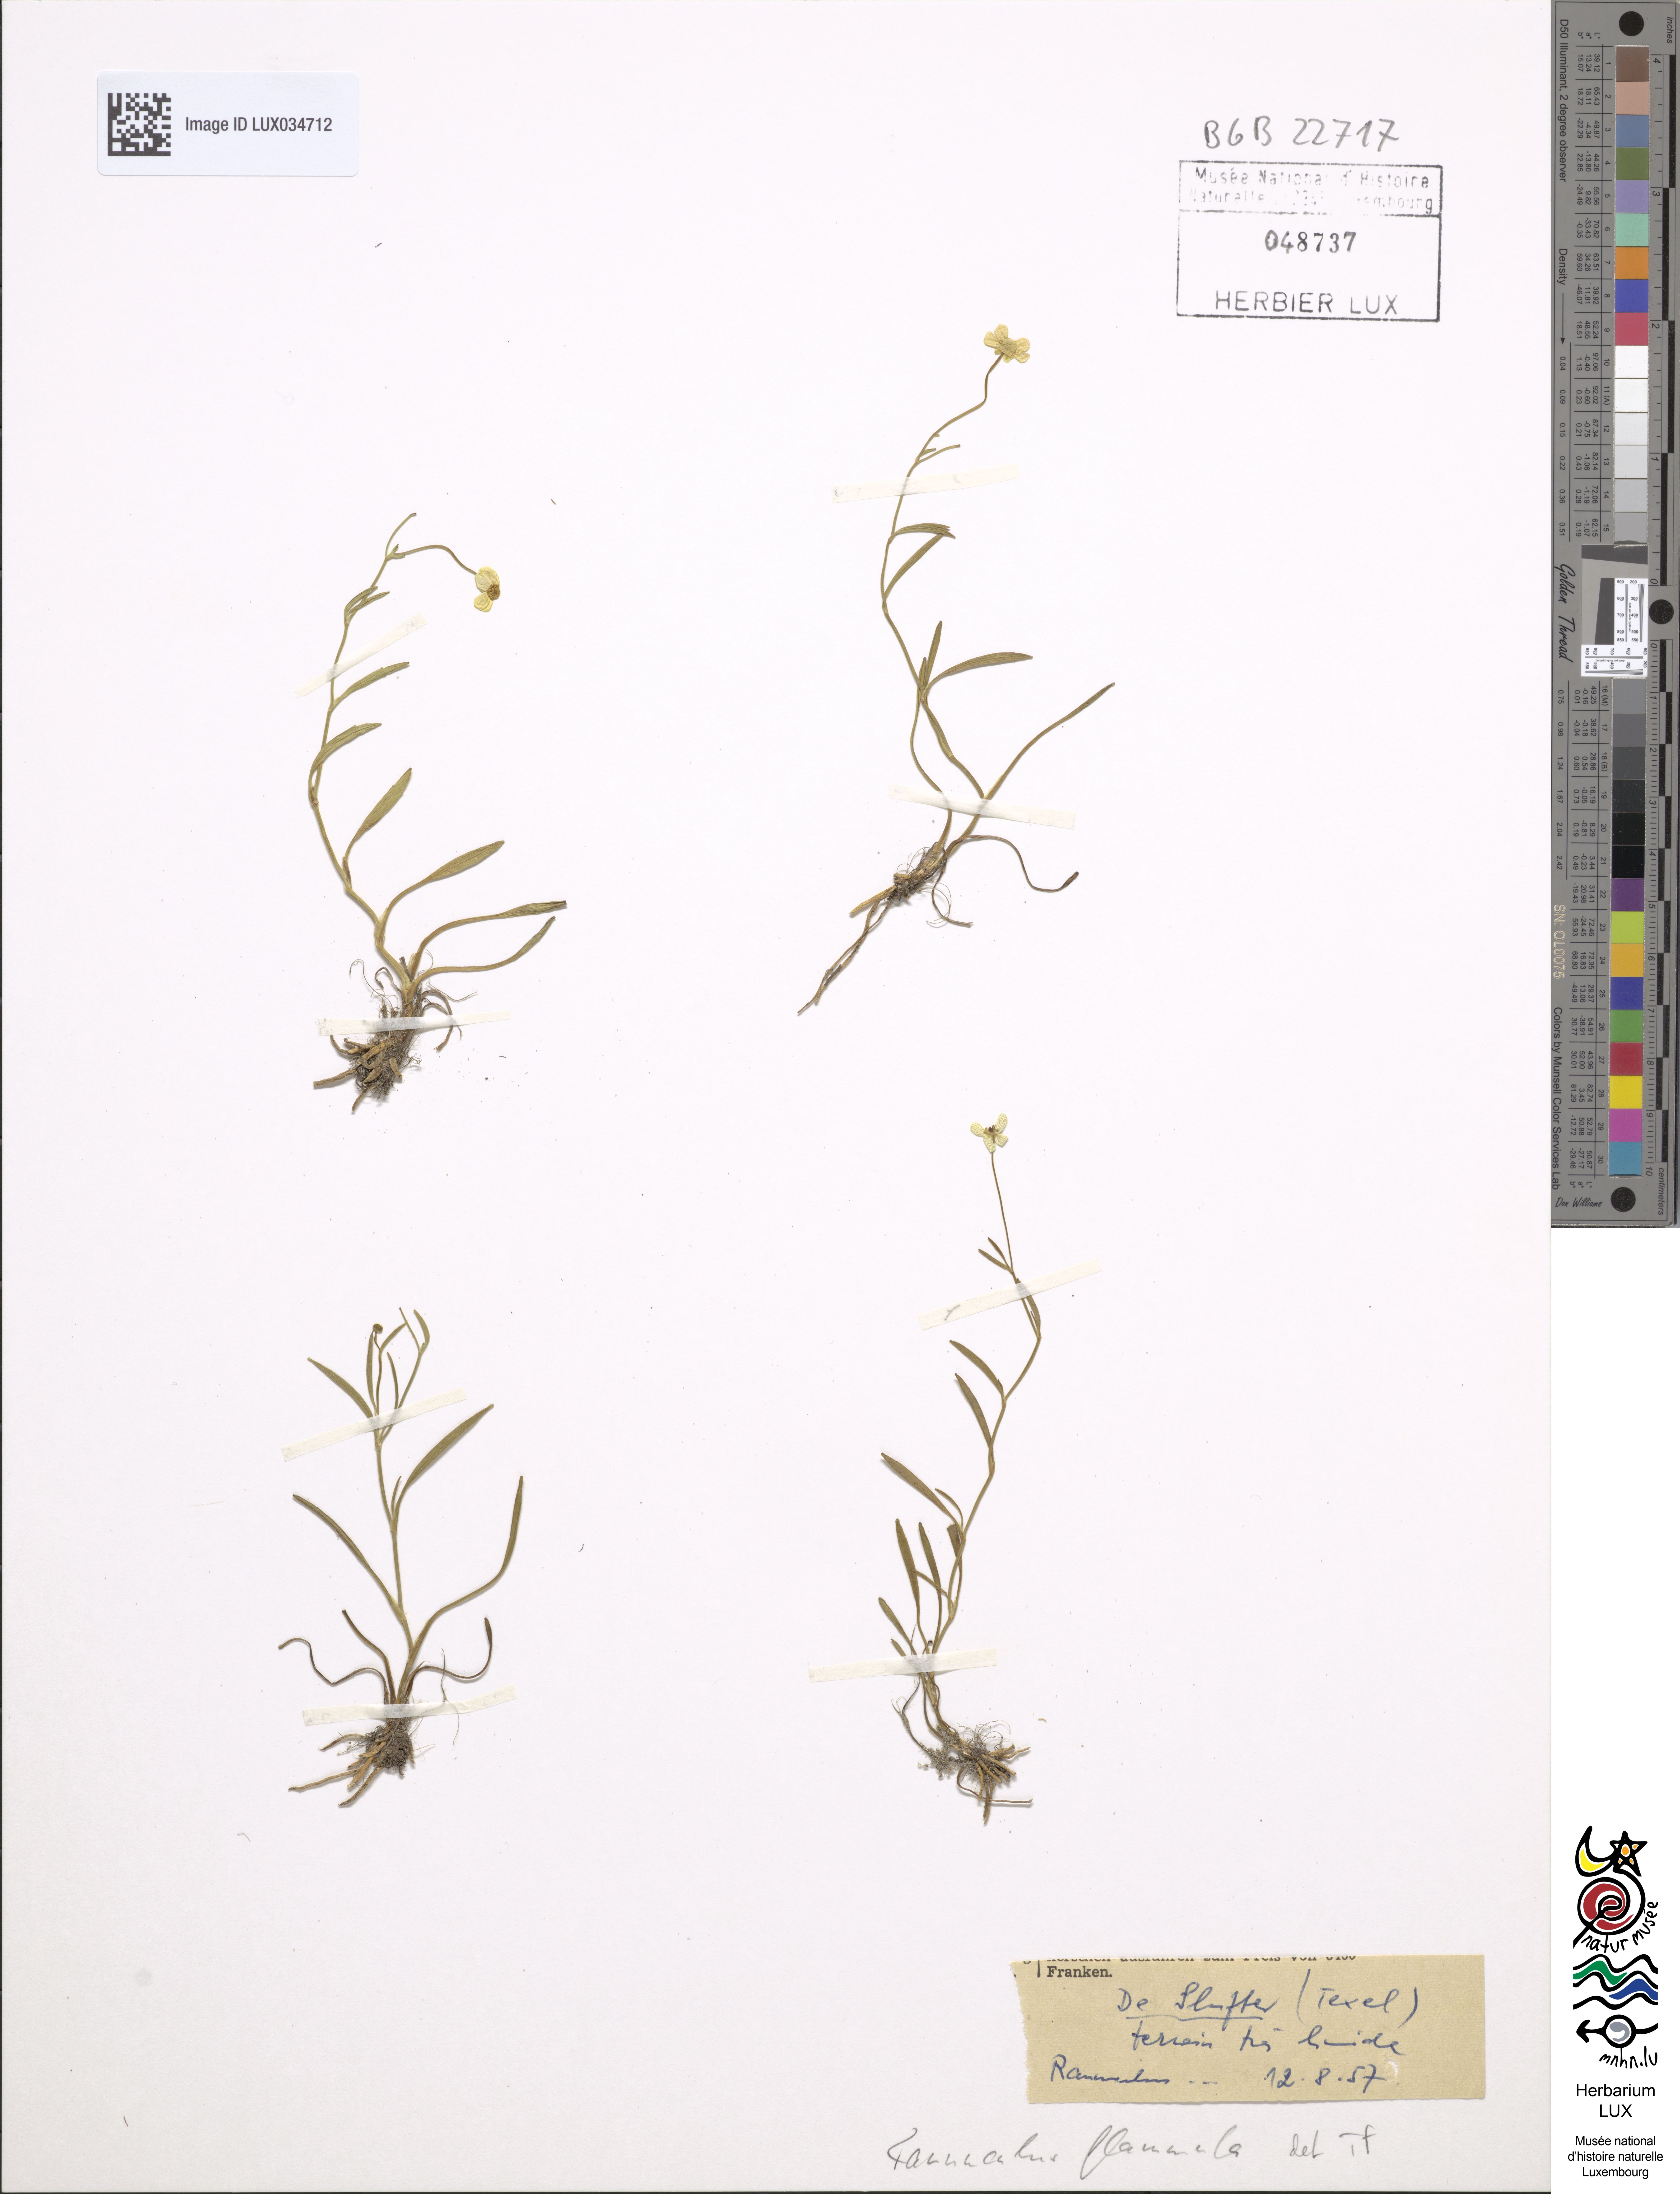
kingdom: Plantae
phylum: Tracheophyta
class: Magnoliopsida
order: Ranunculales
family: Ranunculaceae
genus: Ranunculus
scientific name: Ranunculus flammula
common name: Lesser spearwort
